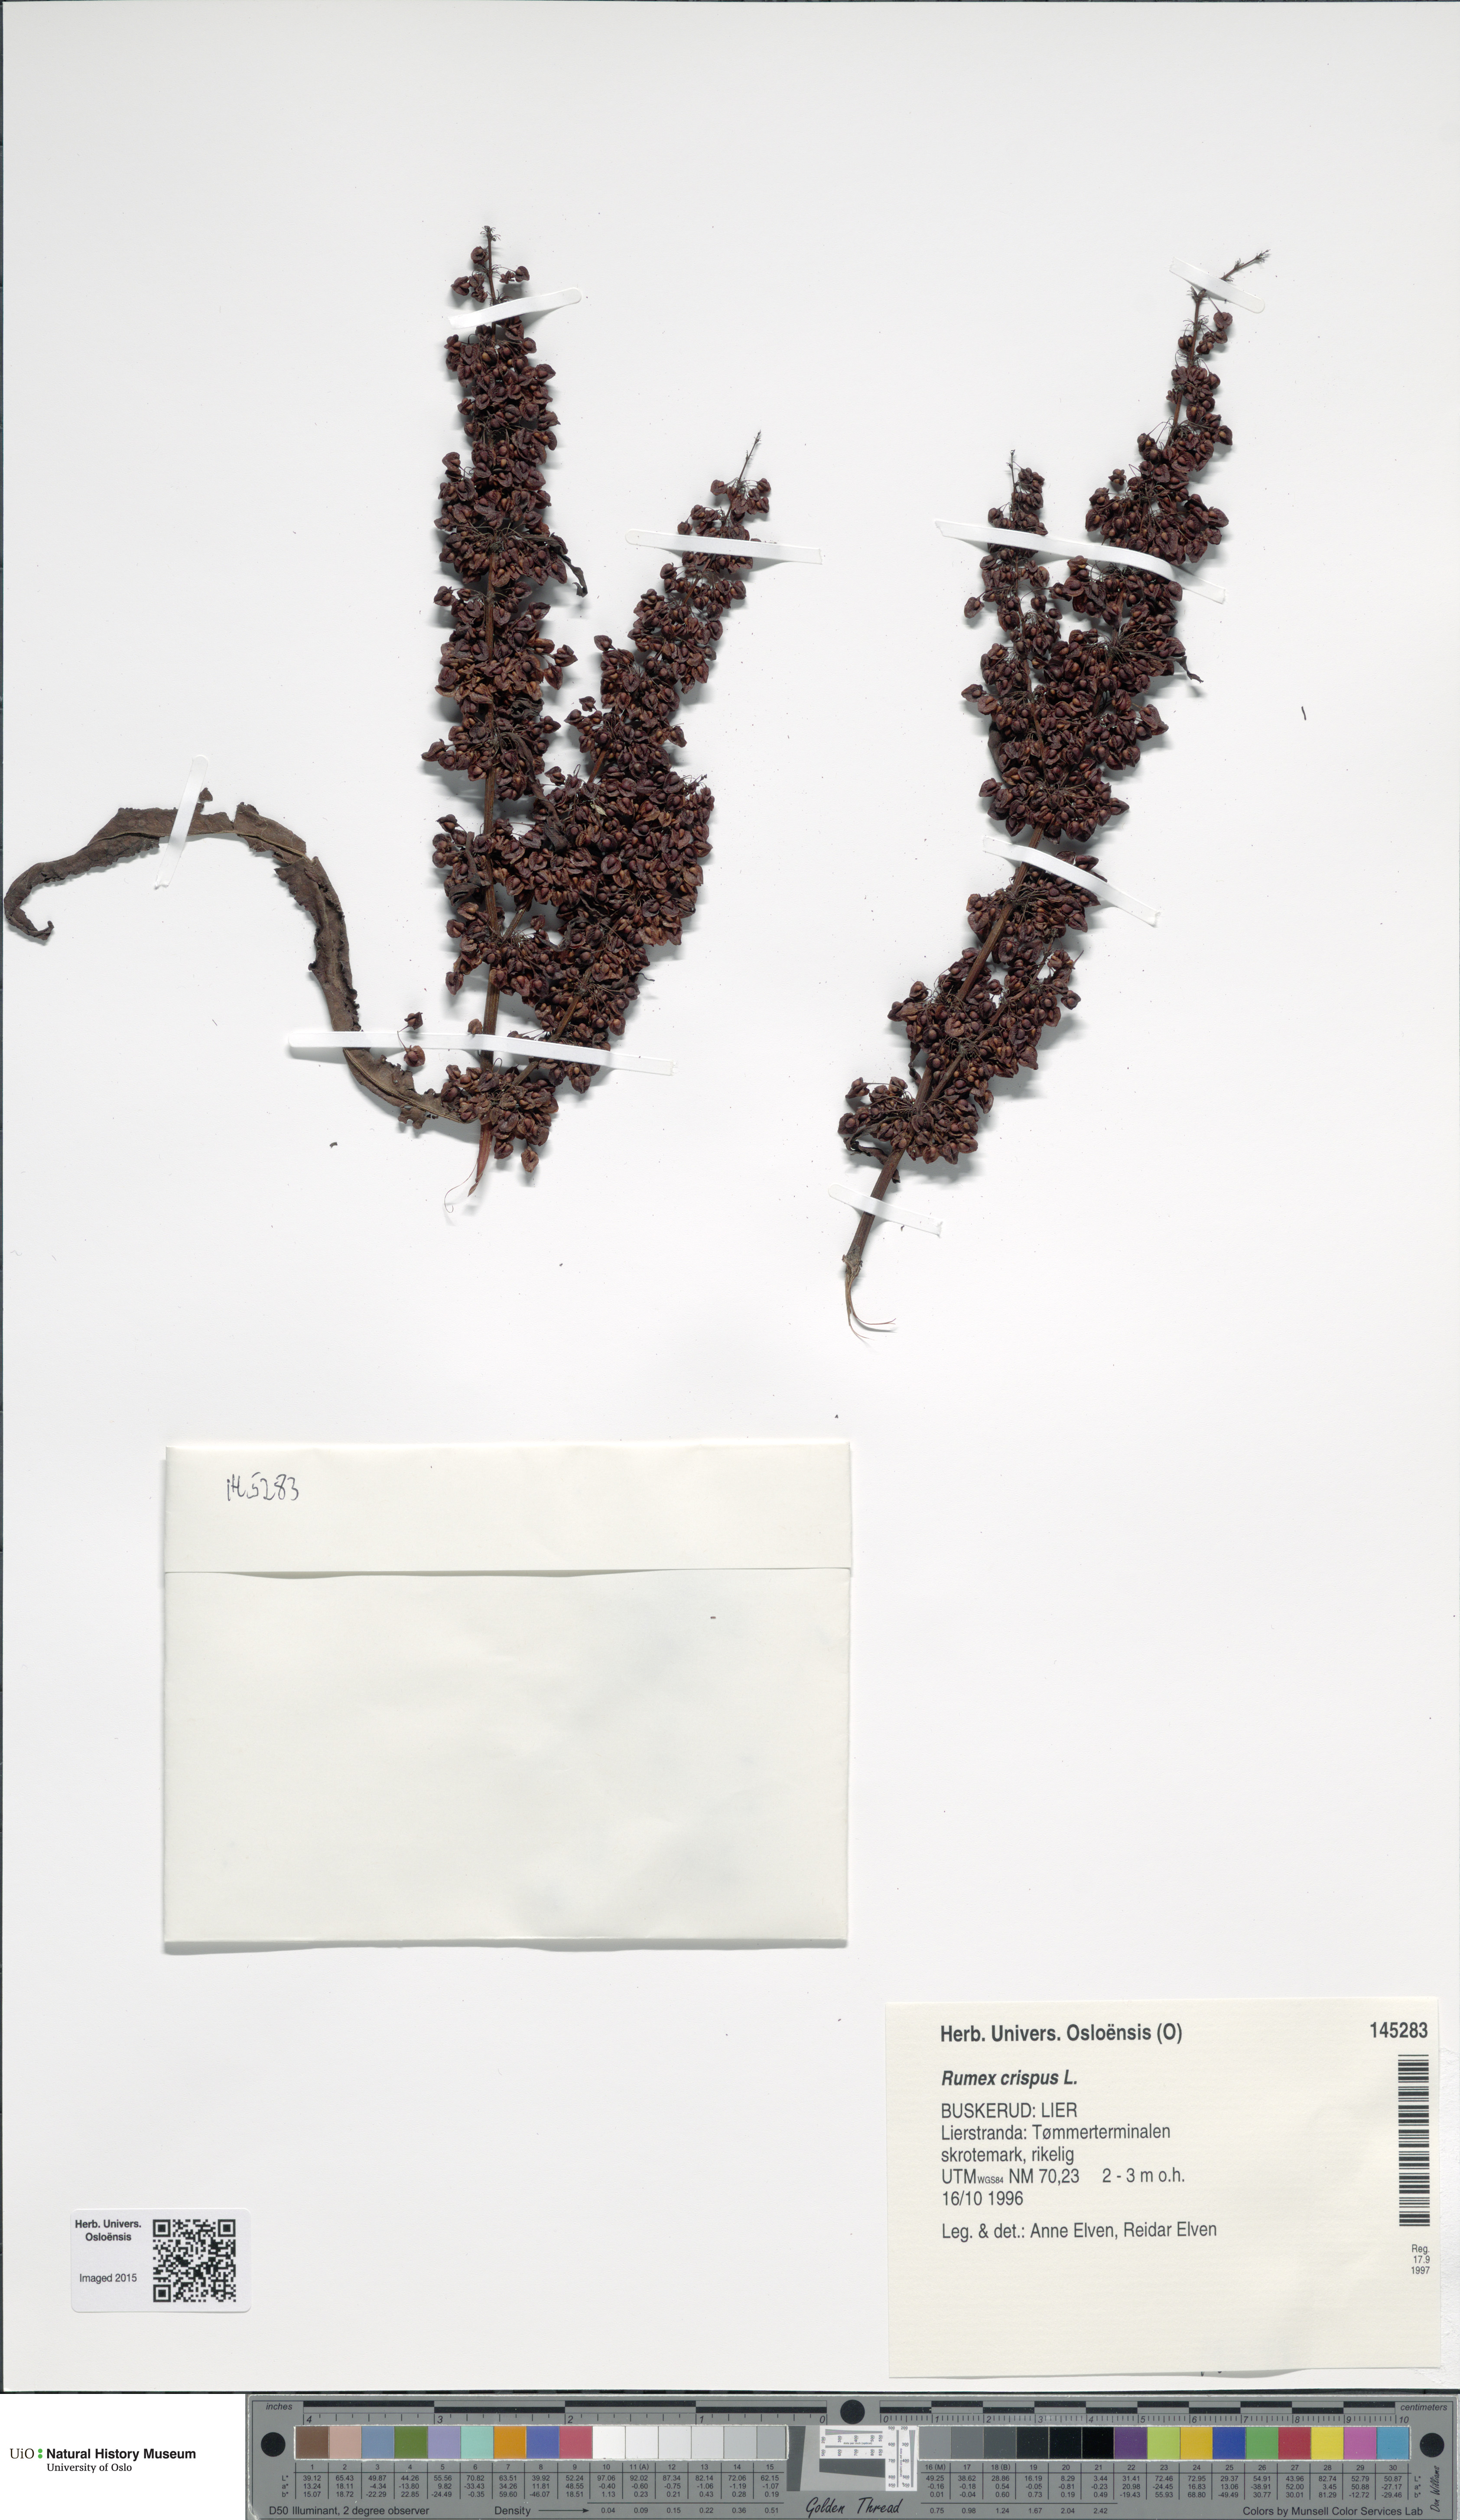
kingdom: Plantae
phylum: Tracheophyta
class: Magnoliopsida
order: Caryophyllales
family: Polygonaceae
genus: Rumex
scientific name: Rumex crispus
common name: Curled dock
